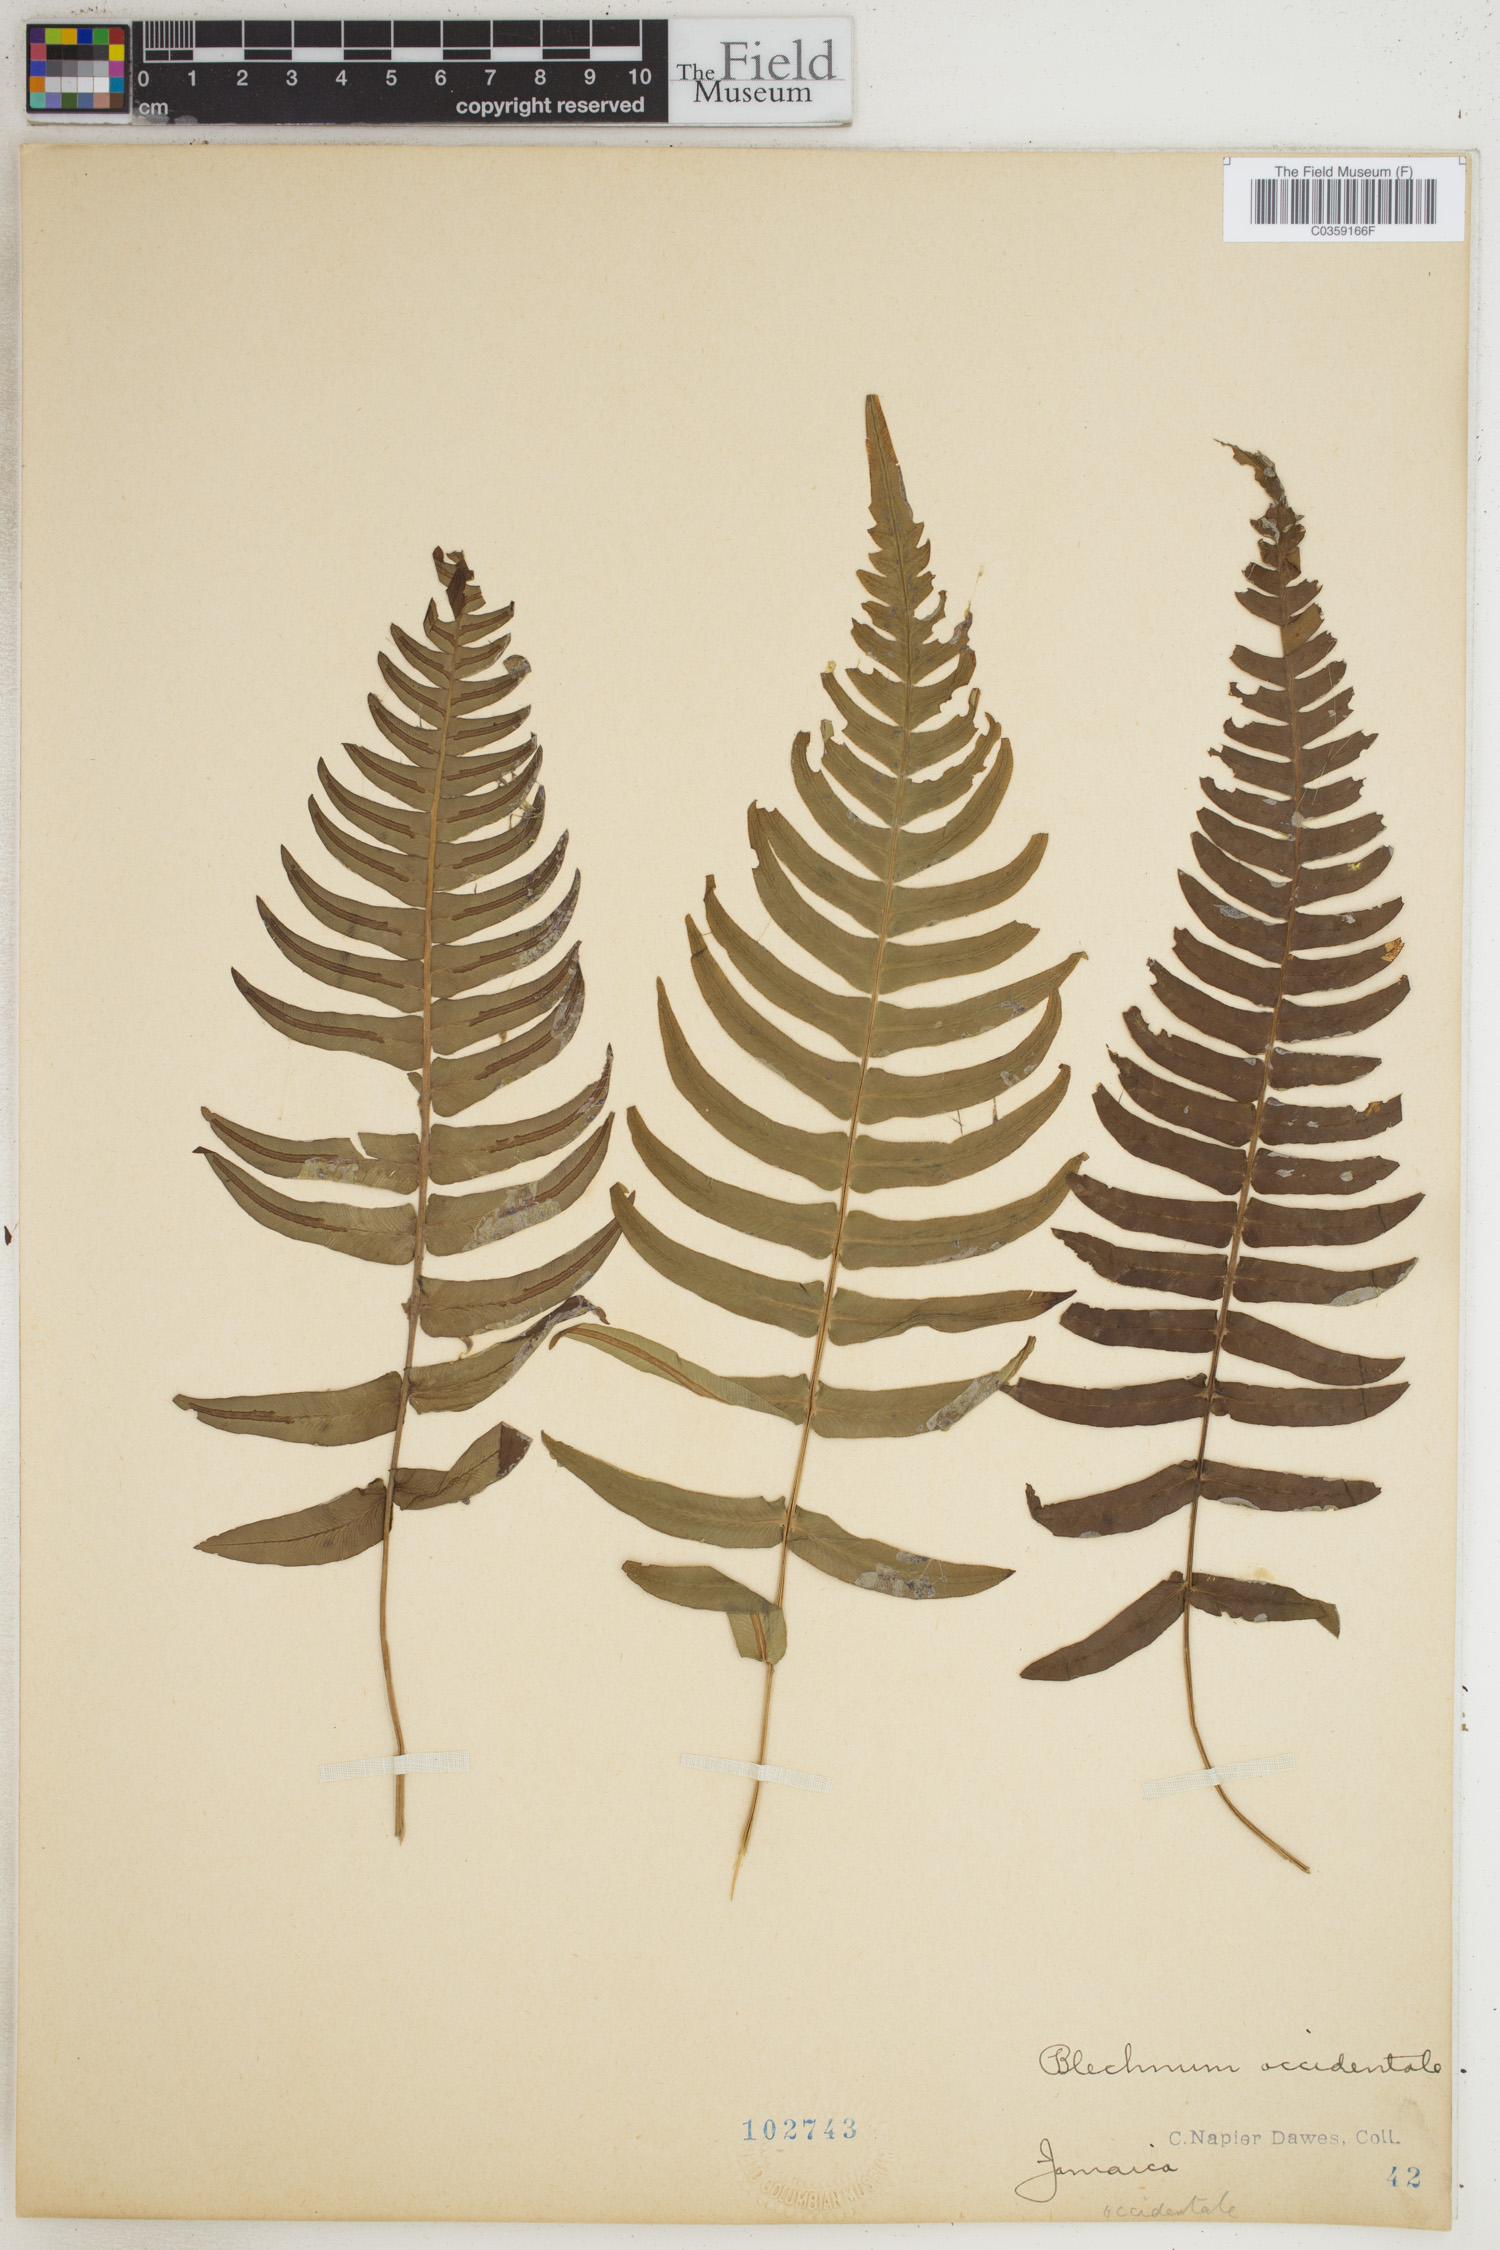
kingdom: Plantae
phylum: Tracheophyta
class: Polypodiopsida
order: Polypodiales
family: Blechnaceae
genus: Blechnum
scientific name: Blechnum occidentale
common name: Hammock fern
